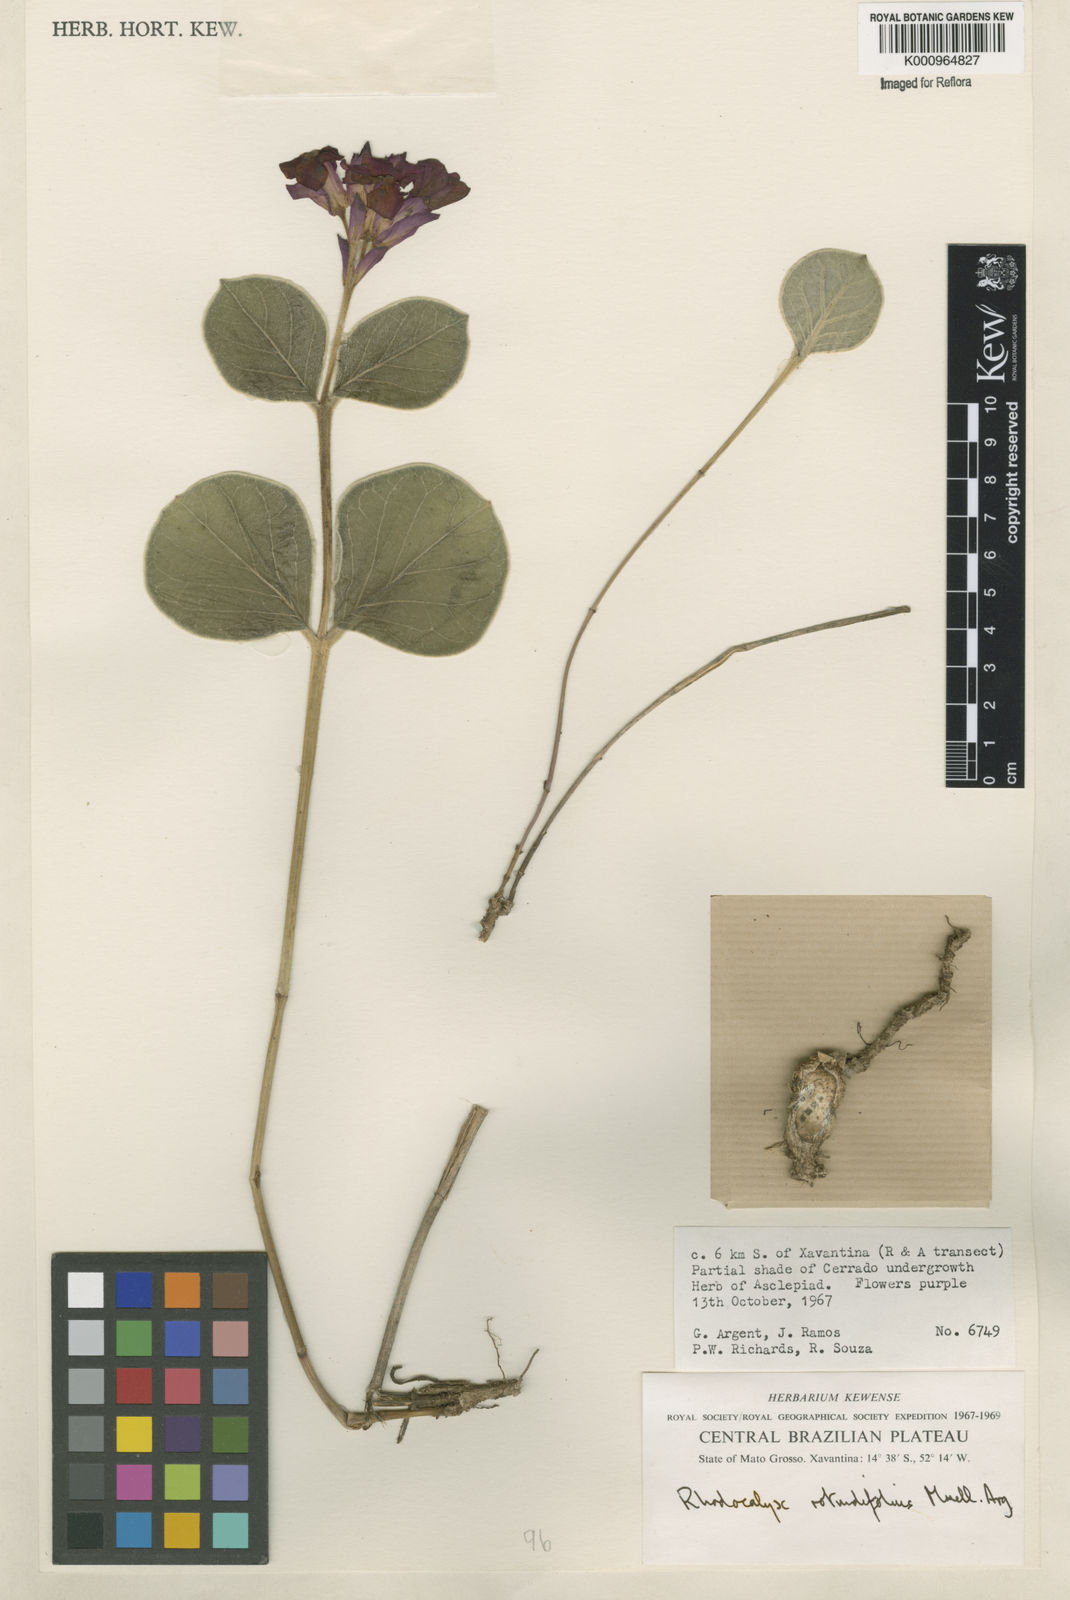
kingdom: Plantae
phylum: Tracheophyta
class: Magnoliopsida
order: Gentianales
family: Apocynaceae
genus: Rhodocalyx
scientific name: Rhodocalyx
